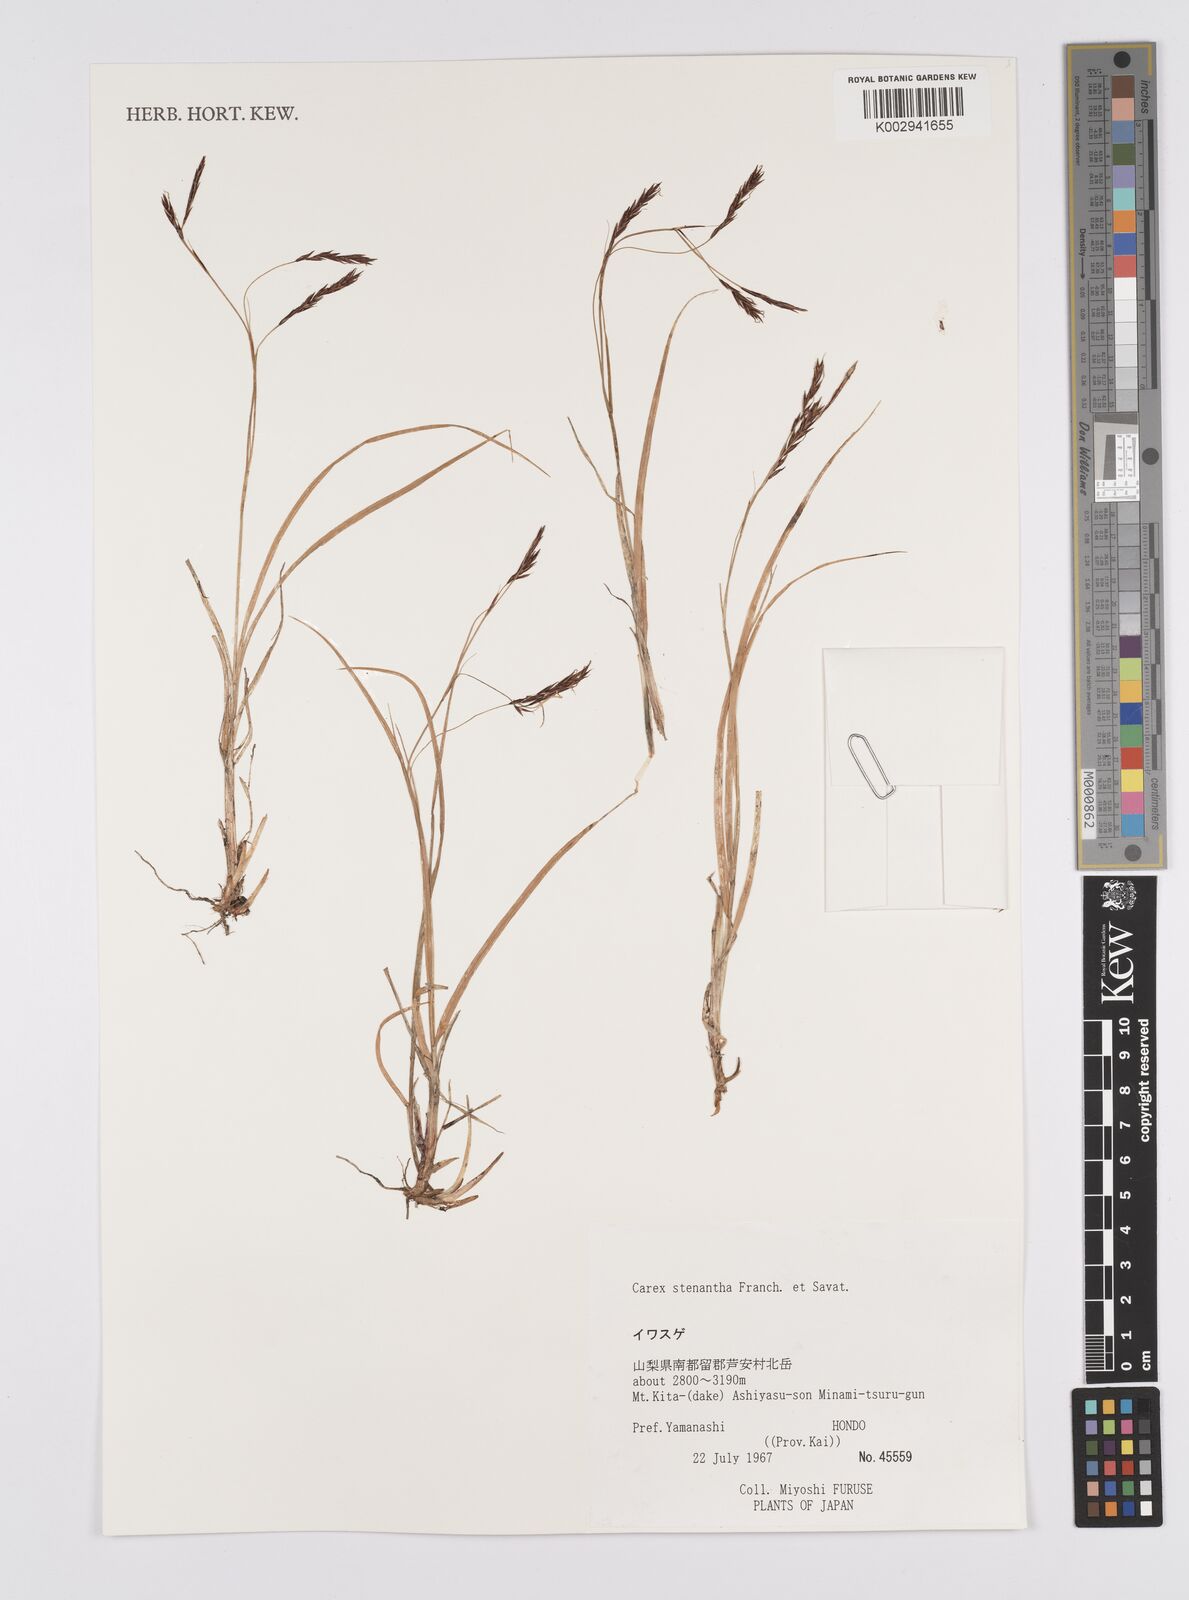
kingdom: Plantae
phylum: Tracheophyta
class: Liliopsida
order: Poales
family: Cyperaceae
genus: Carex
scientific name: Carex stenantha
